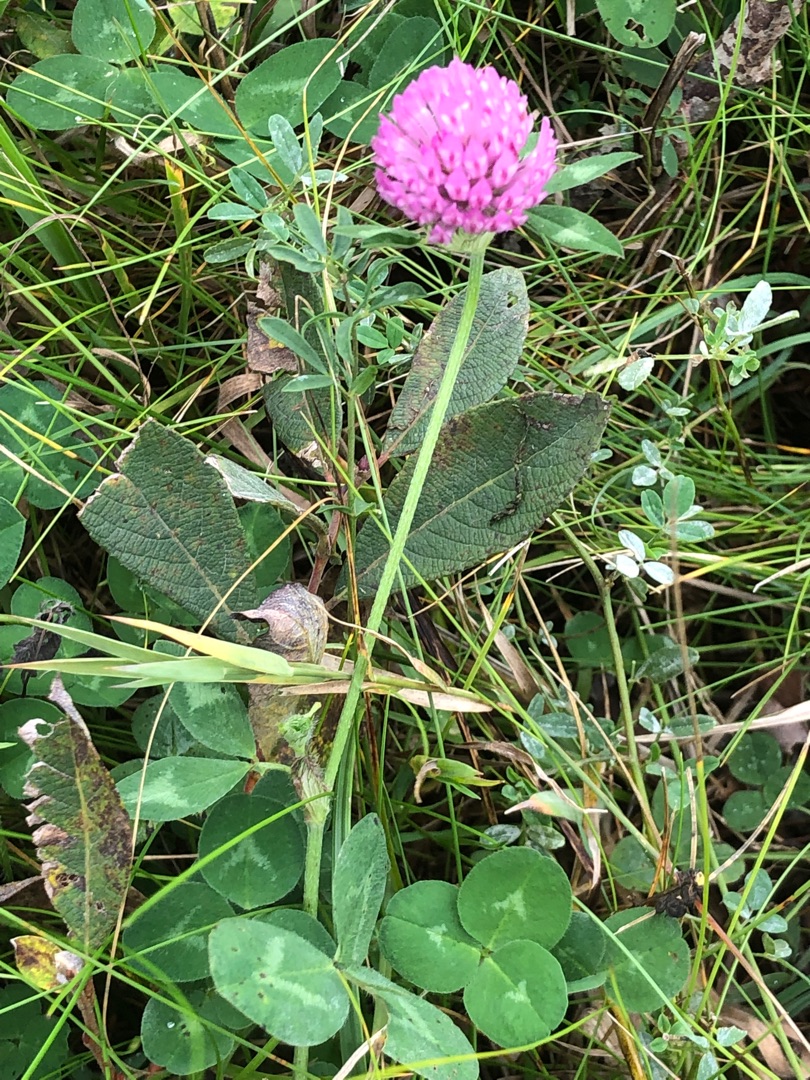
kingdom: Plantae
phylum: Tracheophyta
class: Magnoliopsida
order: Fabales
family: Fabaceae
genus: Trifolium
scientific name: Trifolium pratense
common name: Rød-kløver
